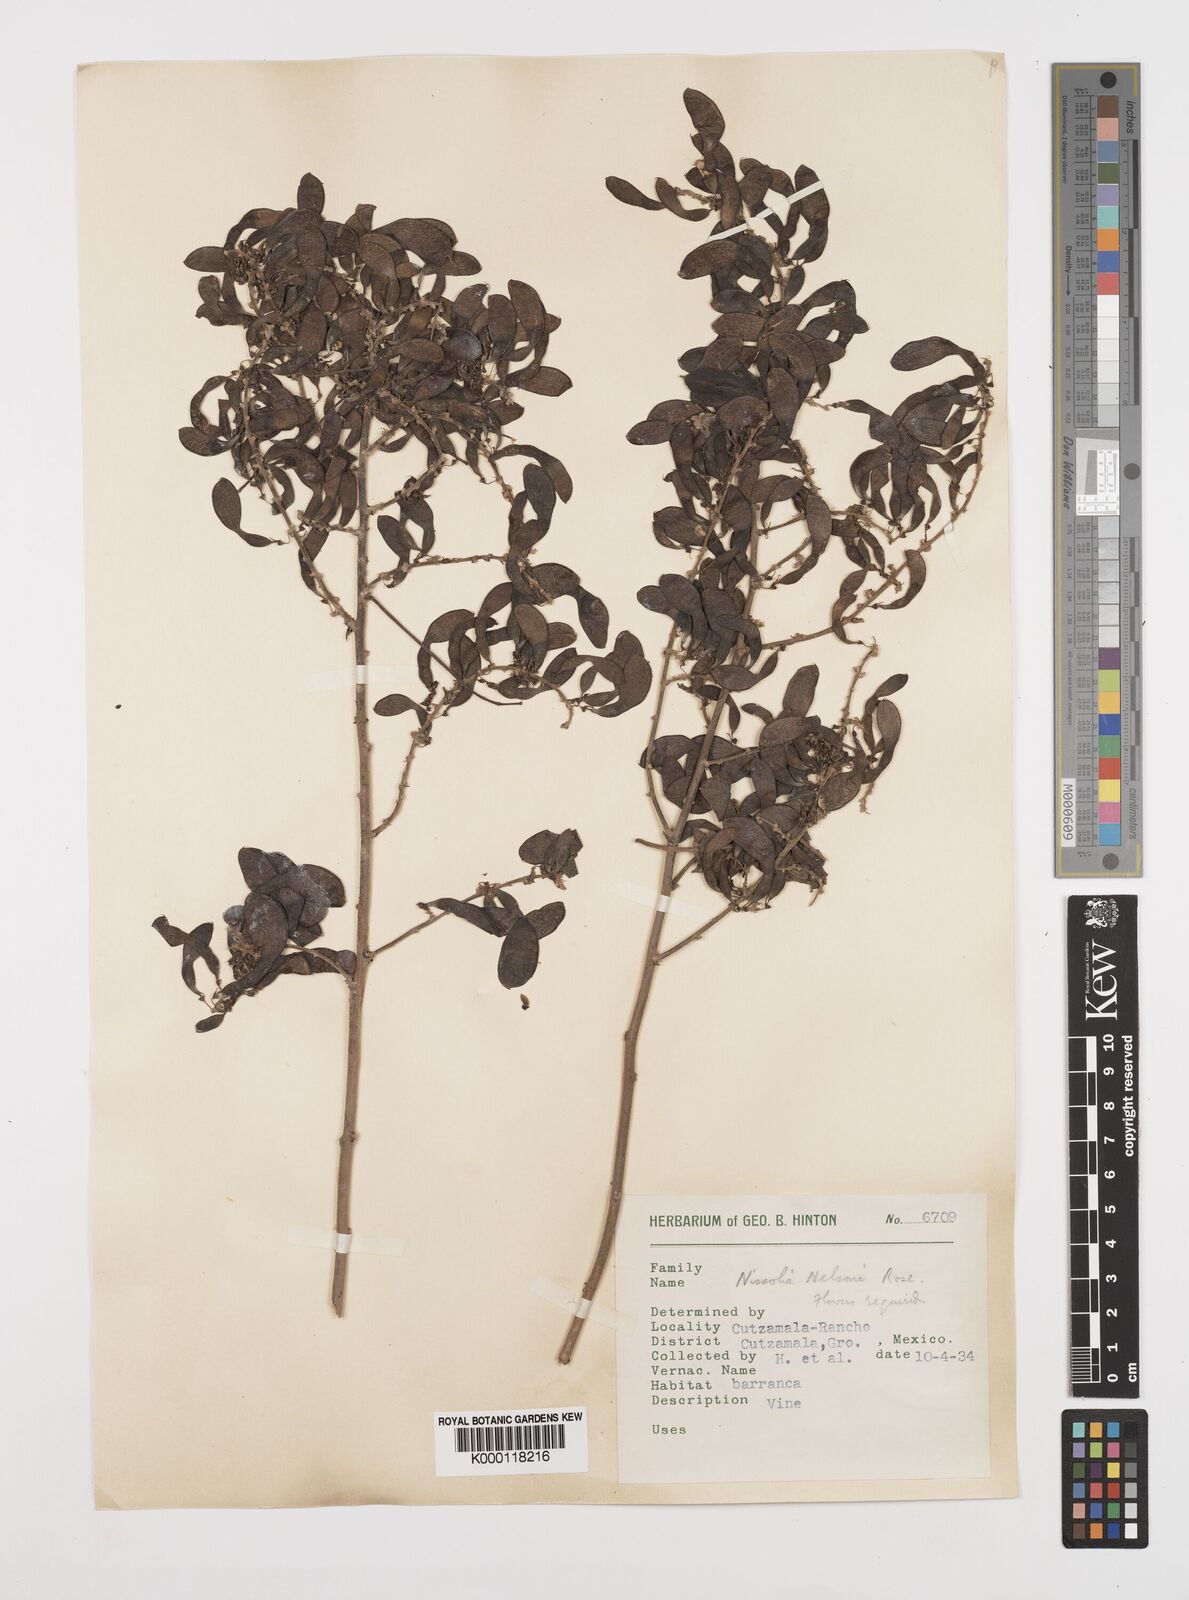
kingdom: Plantae
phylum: Tracheophyta
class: Magnoliopsida
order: Fabales
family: Fabaceae
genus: Nissolia
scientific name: Nissolia fruticosa
